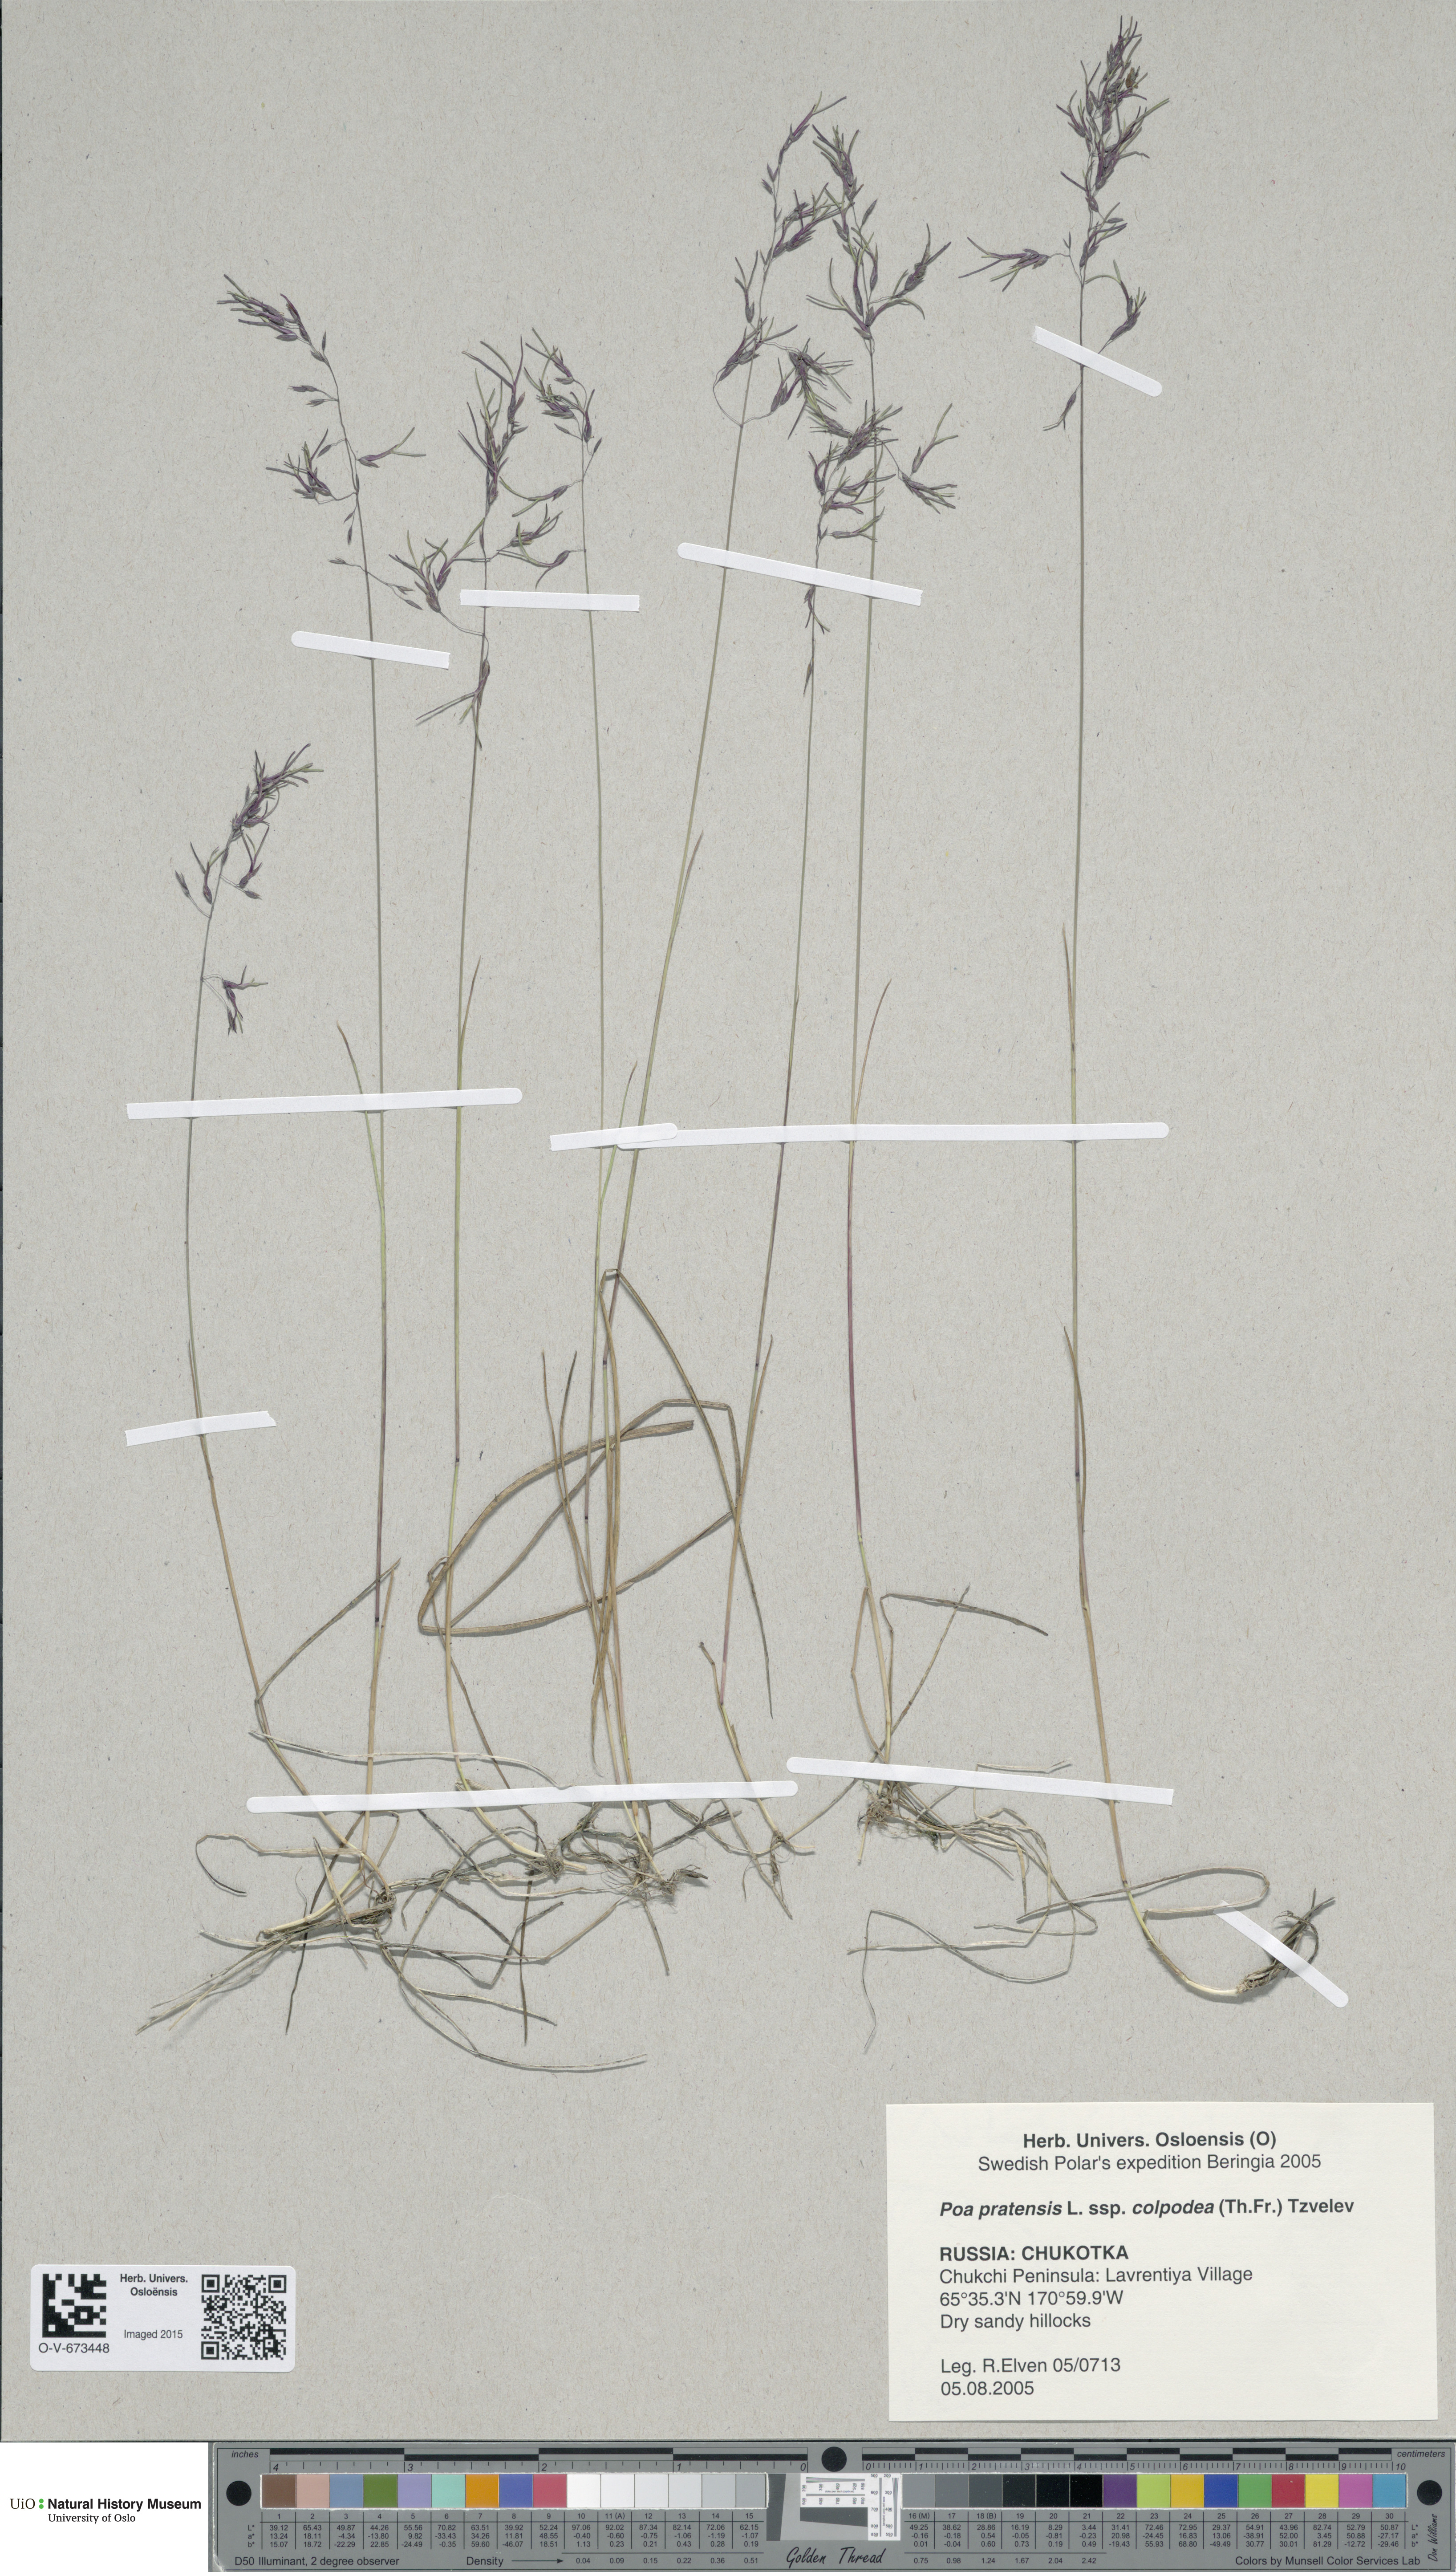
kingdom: Plantae
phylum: Tracheophyta
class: Liliopsida
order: Poales
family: Poaceae
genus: Poa
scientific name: Poa colpodea
